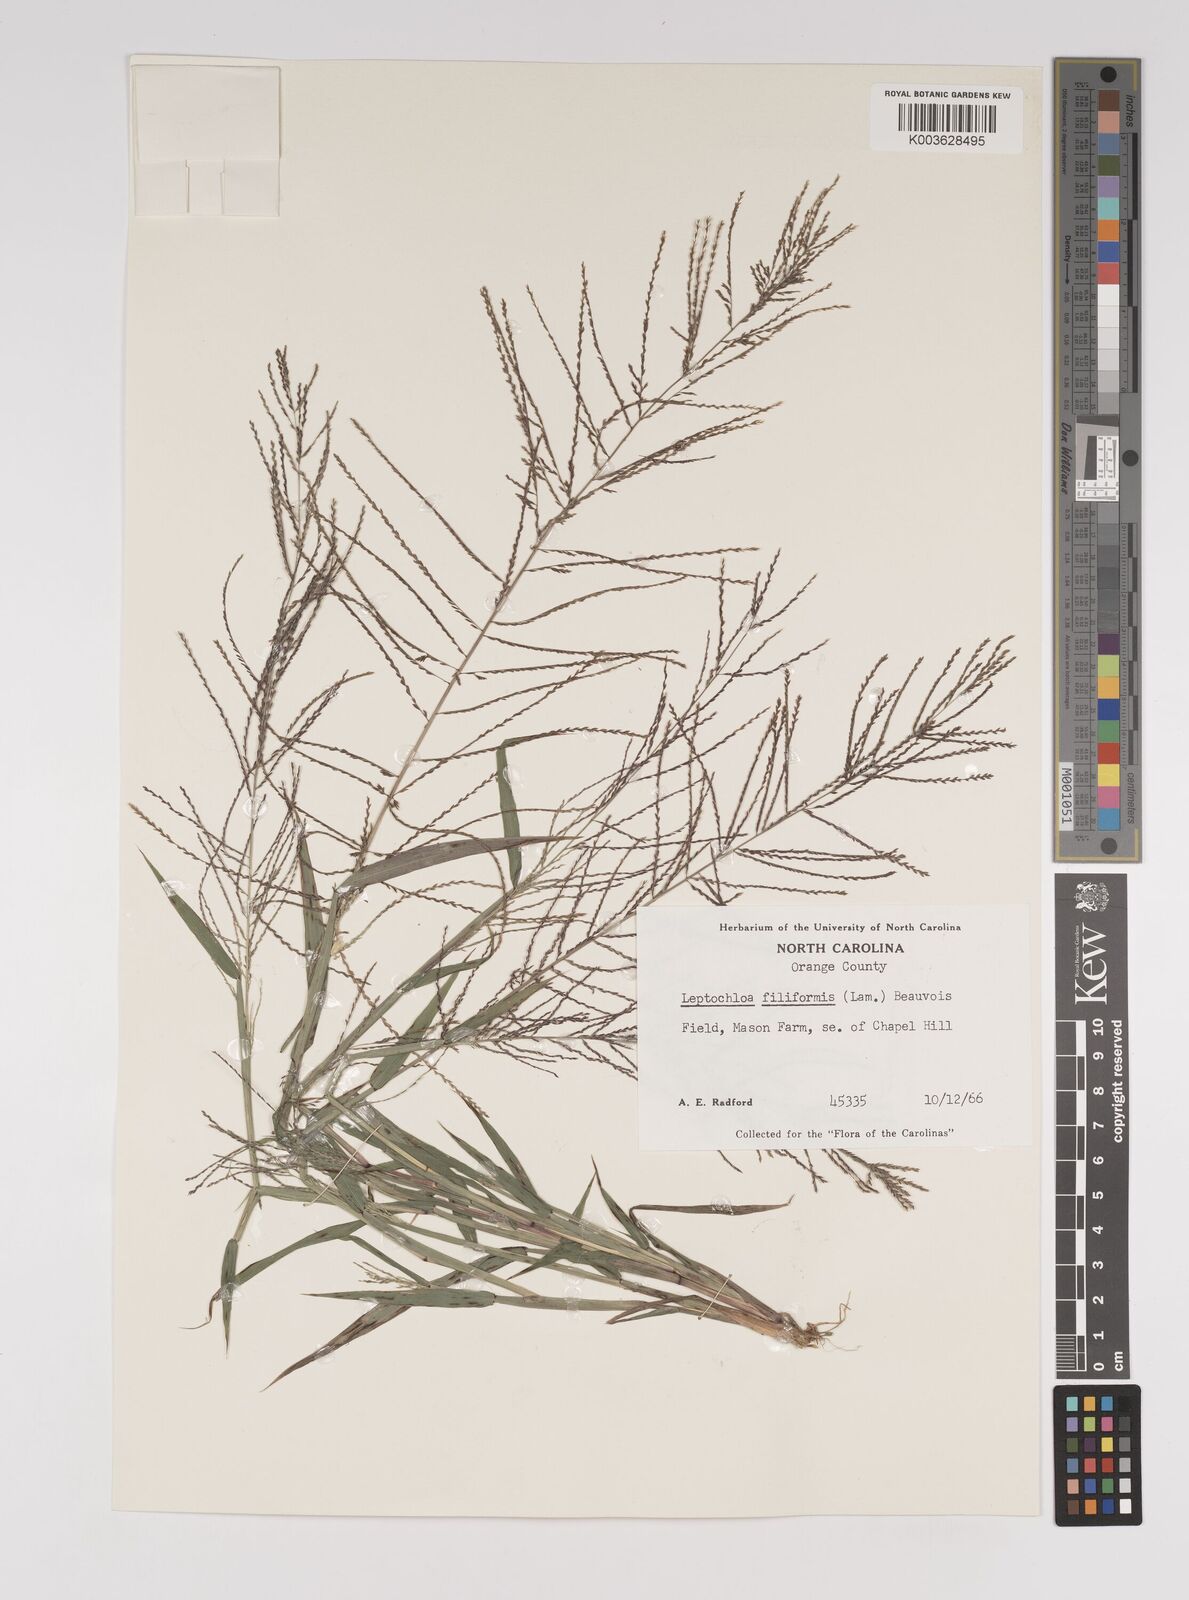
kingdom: Plantae
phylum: Tracheophyta
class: Liliopsida
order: Poales
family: Poaceae
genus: Leptochloa
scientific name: Leptochloa panicea
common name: Mucronate sprangletop
